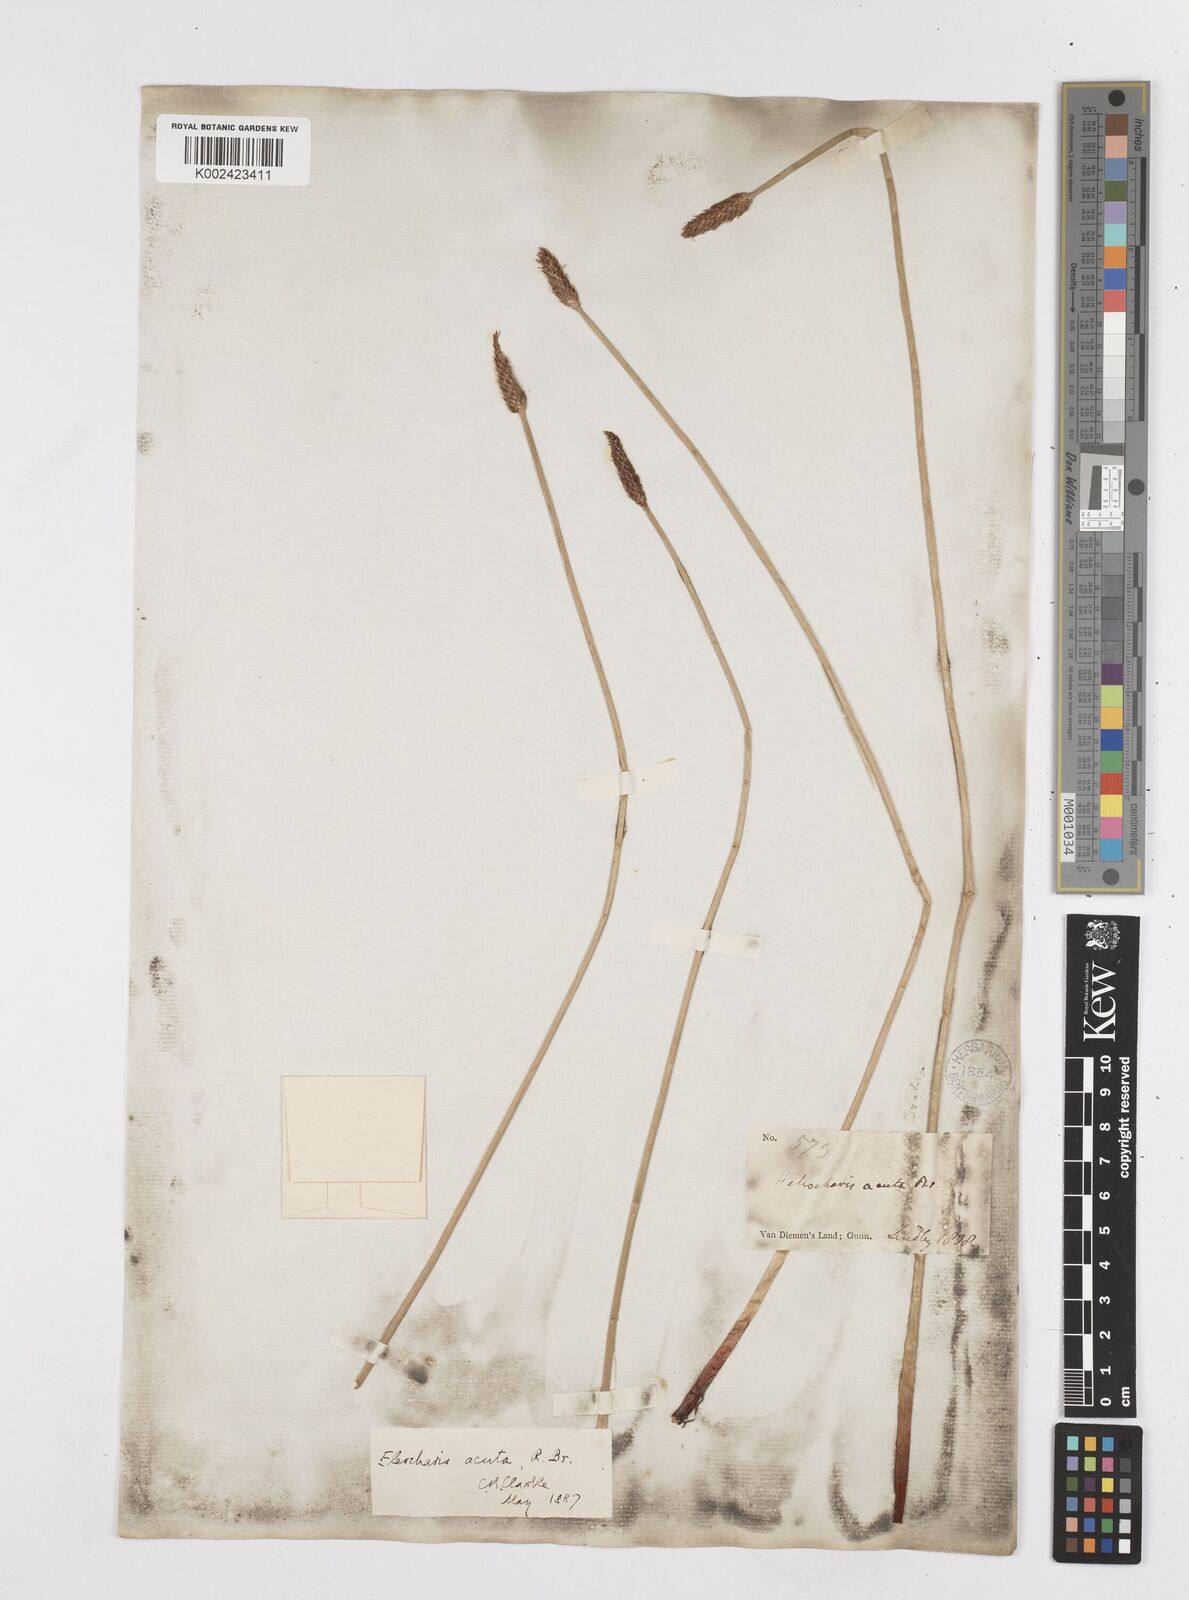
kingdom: Plantae
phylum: Tracheophyta
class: Liliopsida
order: Poales
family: Cyperaceae
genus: Eleocharis
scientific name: Eleocharis acuta
